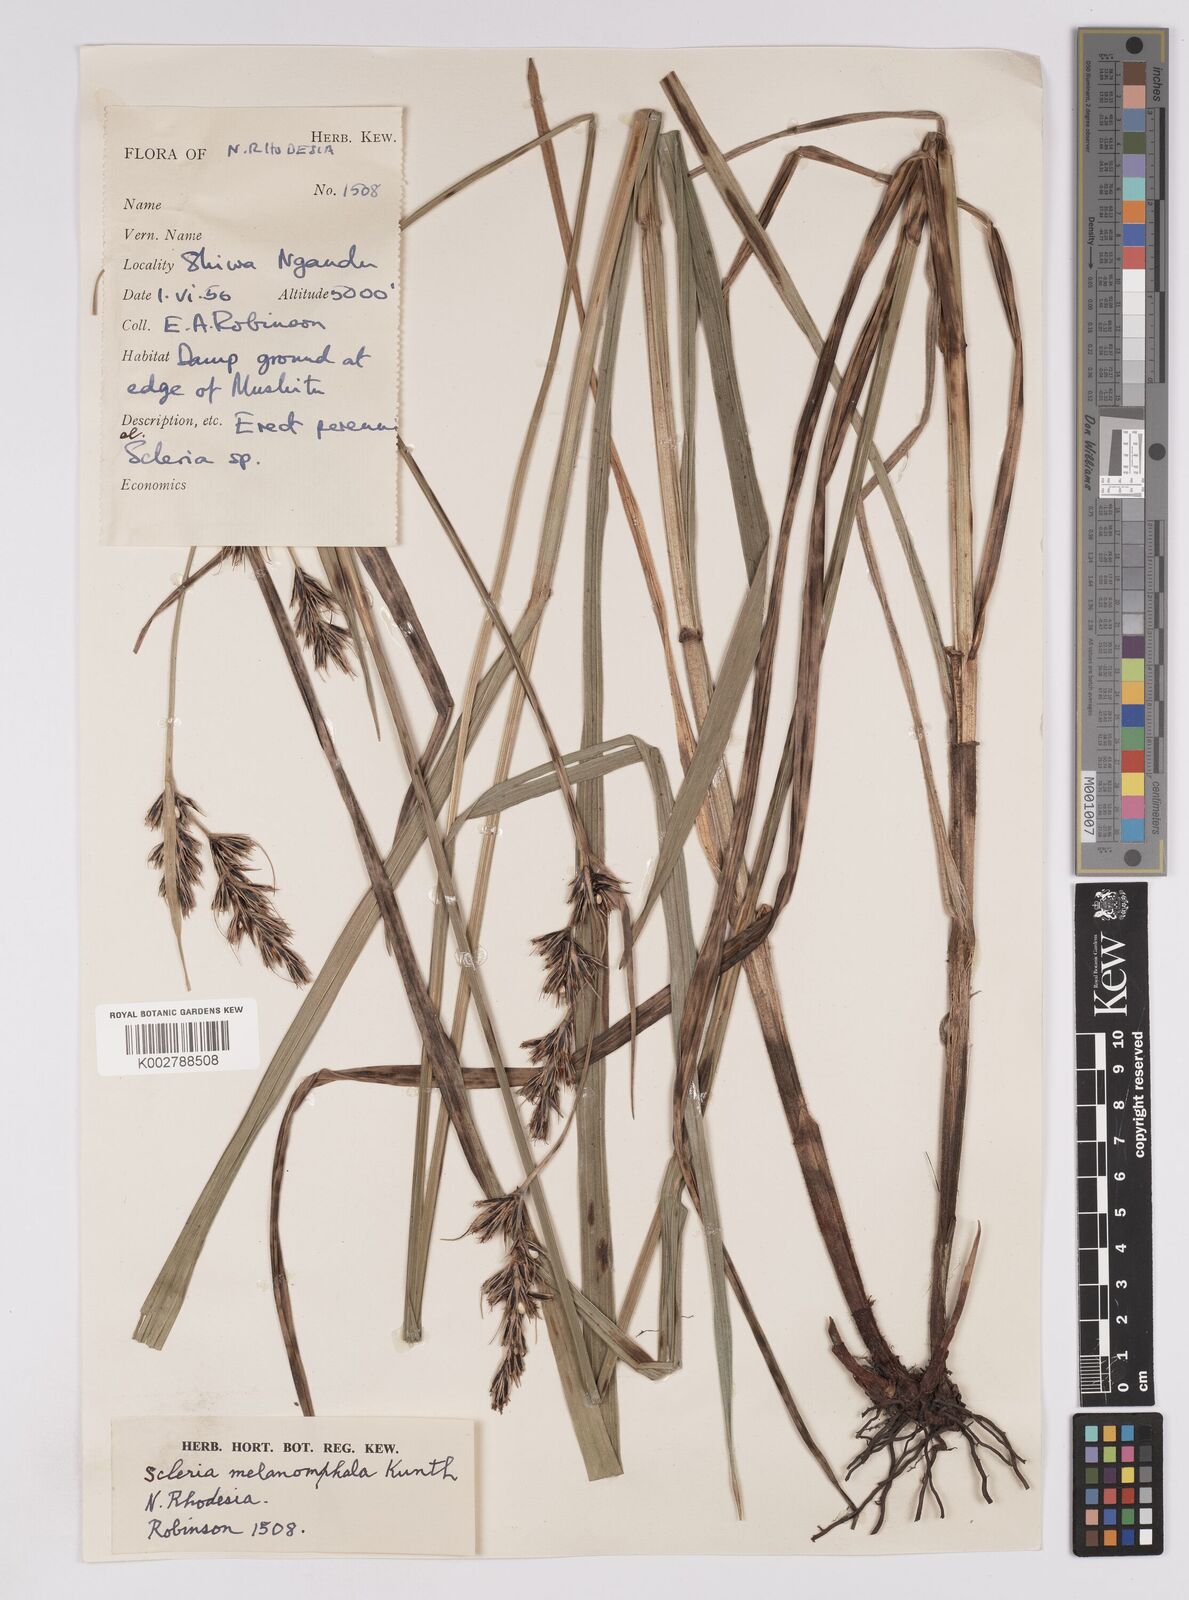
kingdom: Plantae
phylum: Tracheophyta
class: Liliopsida
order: Poales
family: Cyperaceae
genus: Scleria
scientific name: Scleria melanomphala
